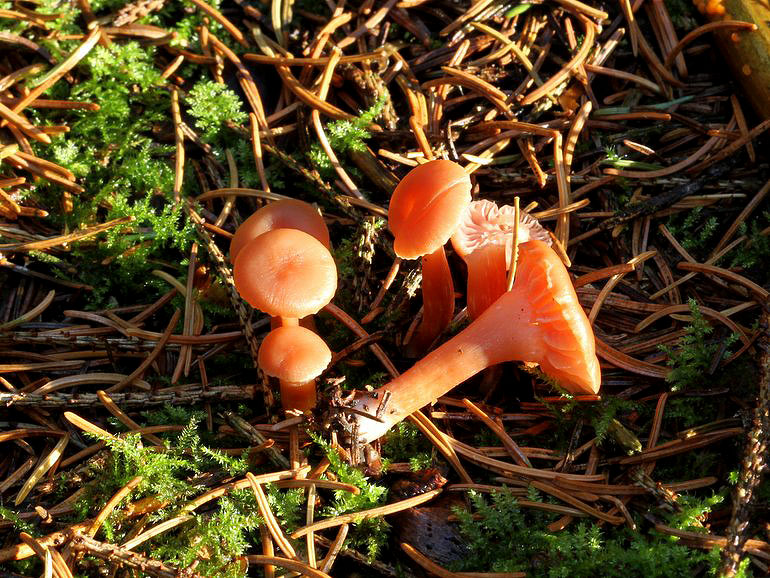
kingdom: Fungi
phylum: Basidiomycota
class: Agaricomycetes
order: Agaricales
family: Hydnangiaceae
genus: Laccaria
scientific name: Laccaria laccata
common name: rød ametysthat
